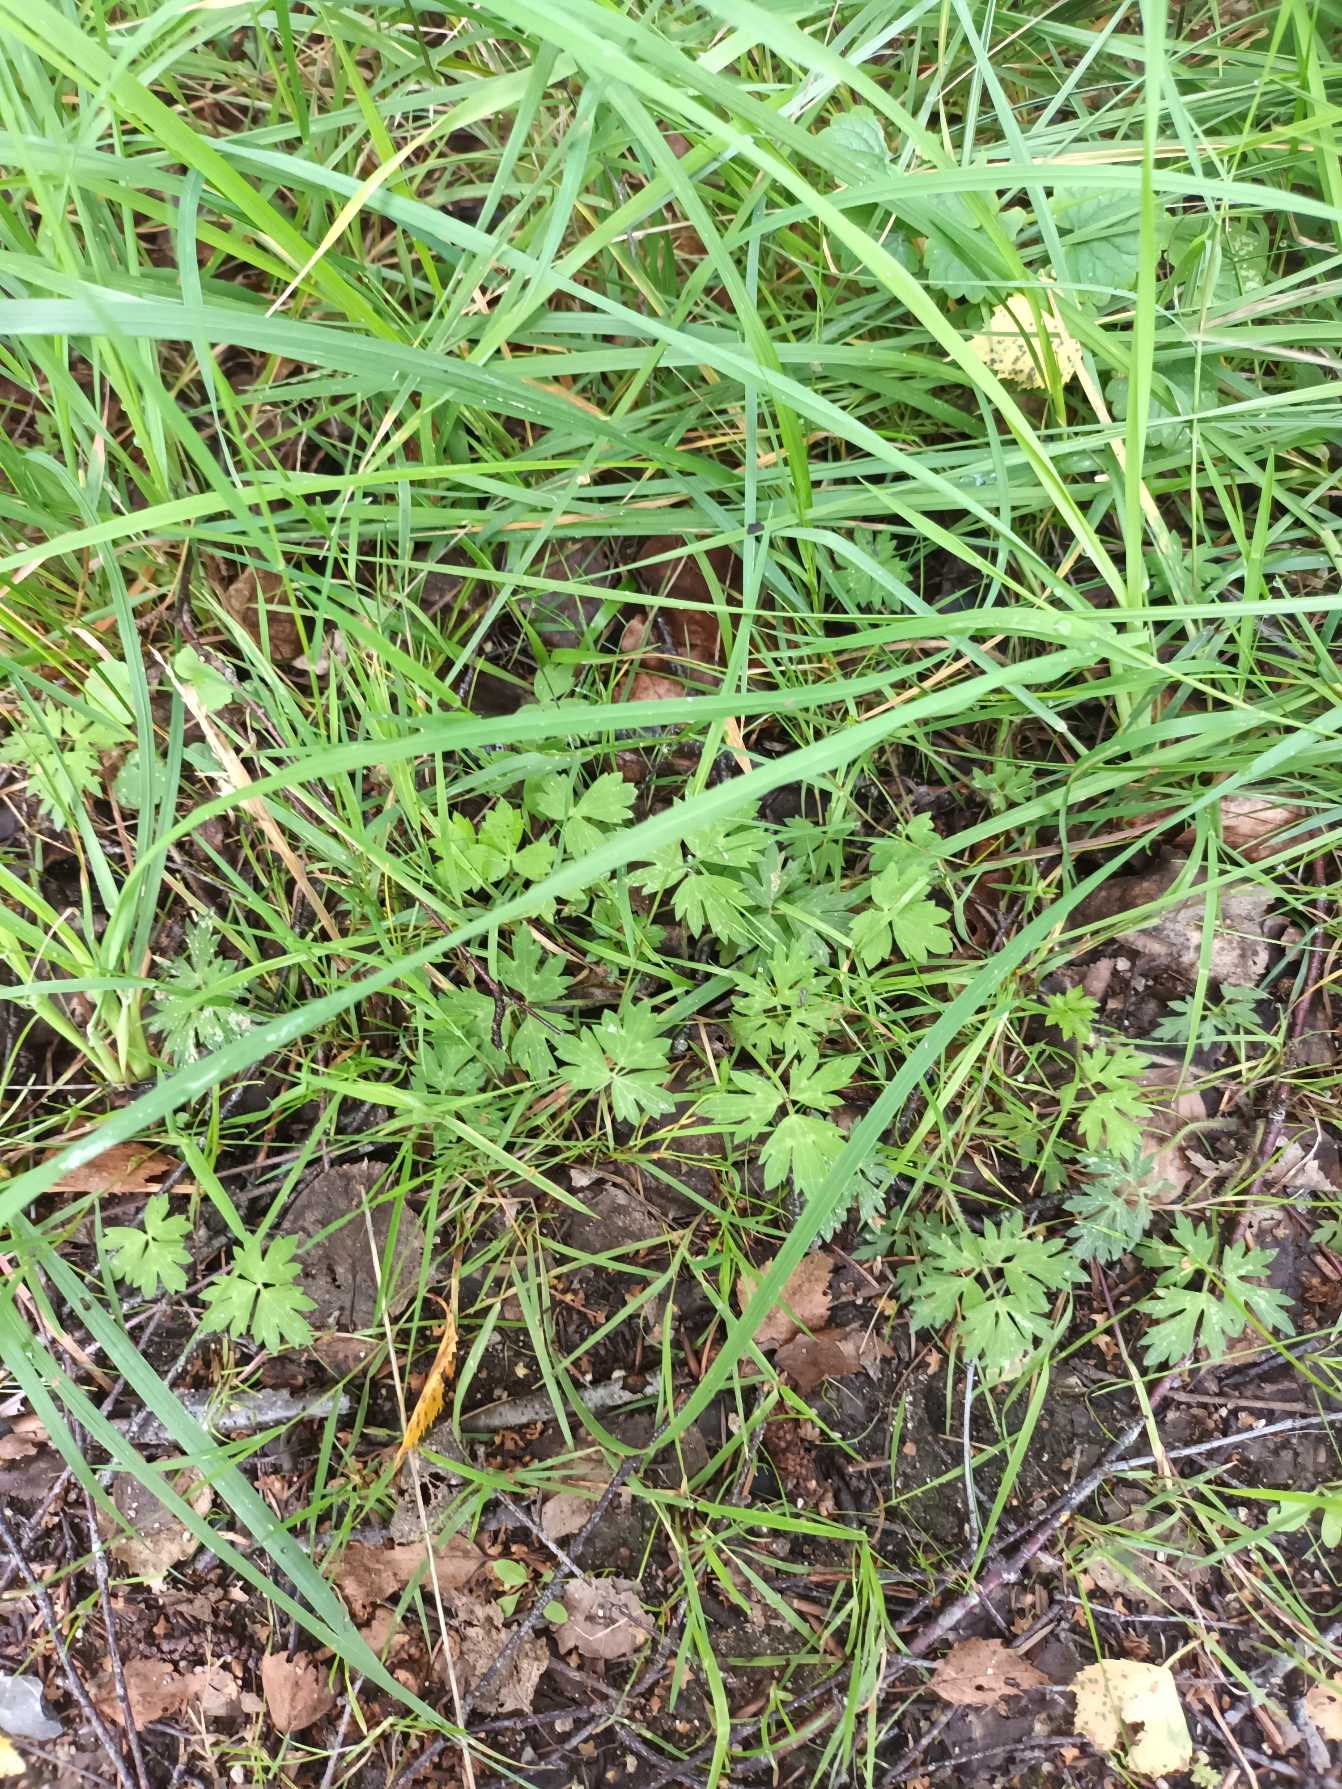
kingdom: Plantae
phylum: Tracheophyta
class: Magnoliopsida
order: Ranunculales
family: Ranunculaceae
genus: Ranunculus
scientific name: Ranunculus repens
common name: Lav ranunkel
